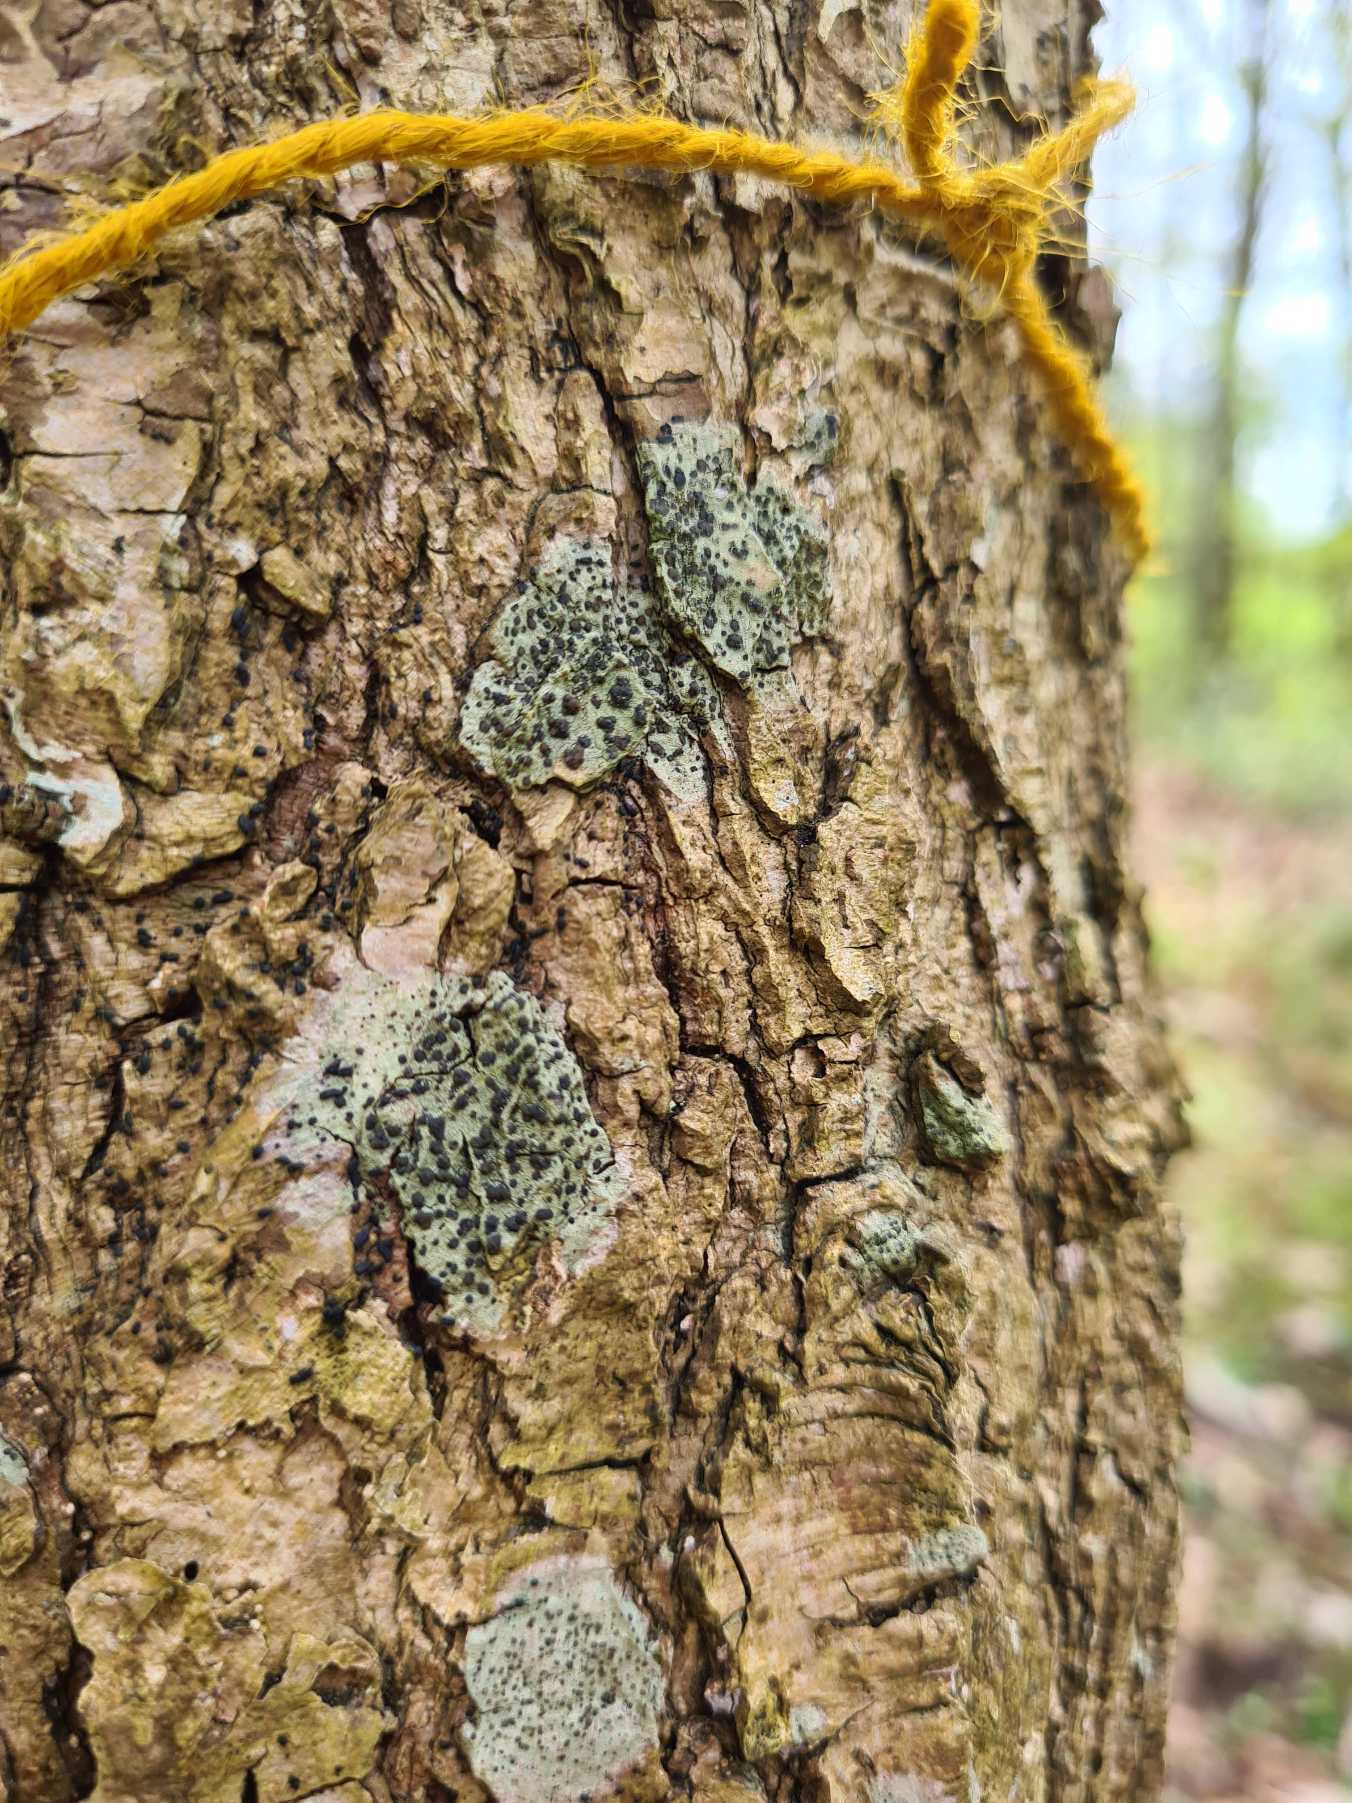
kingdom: Fungi
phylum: Ascomycota
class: Lecanoromycetes
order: Lecanorales
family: Lecanoraceae
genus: Lecidella
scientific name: Lecidella elaeochroma
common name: Grågrøn skivelav
